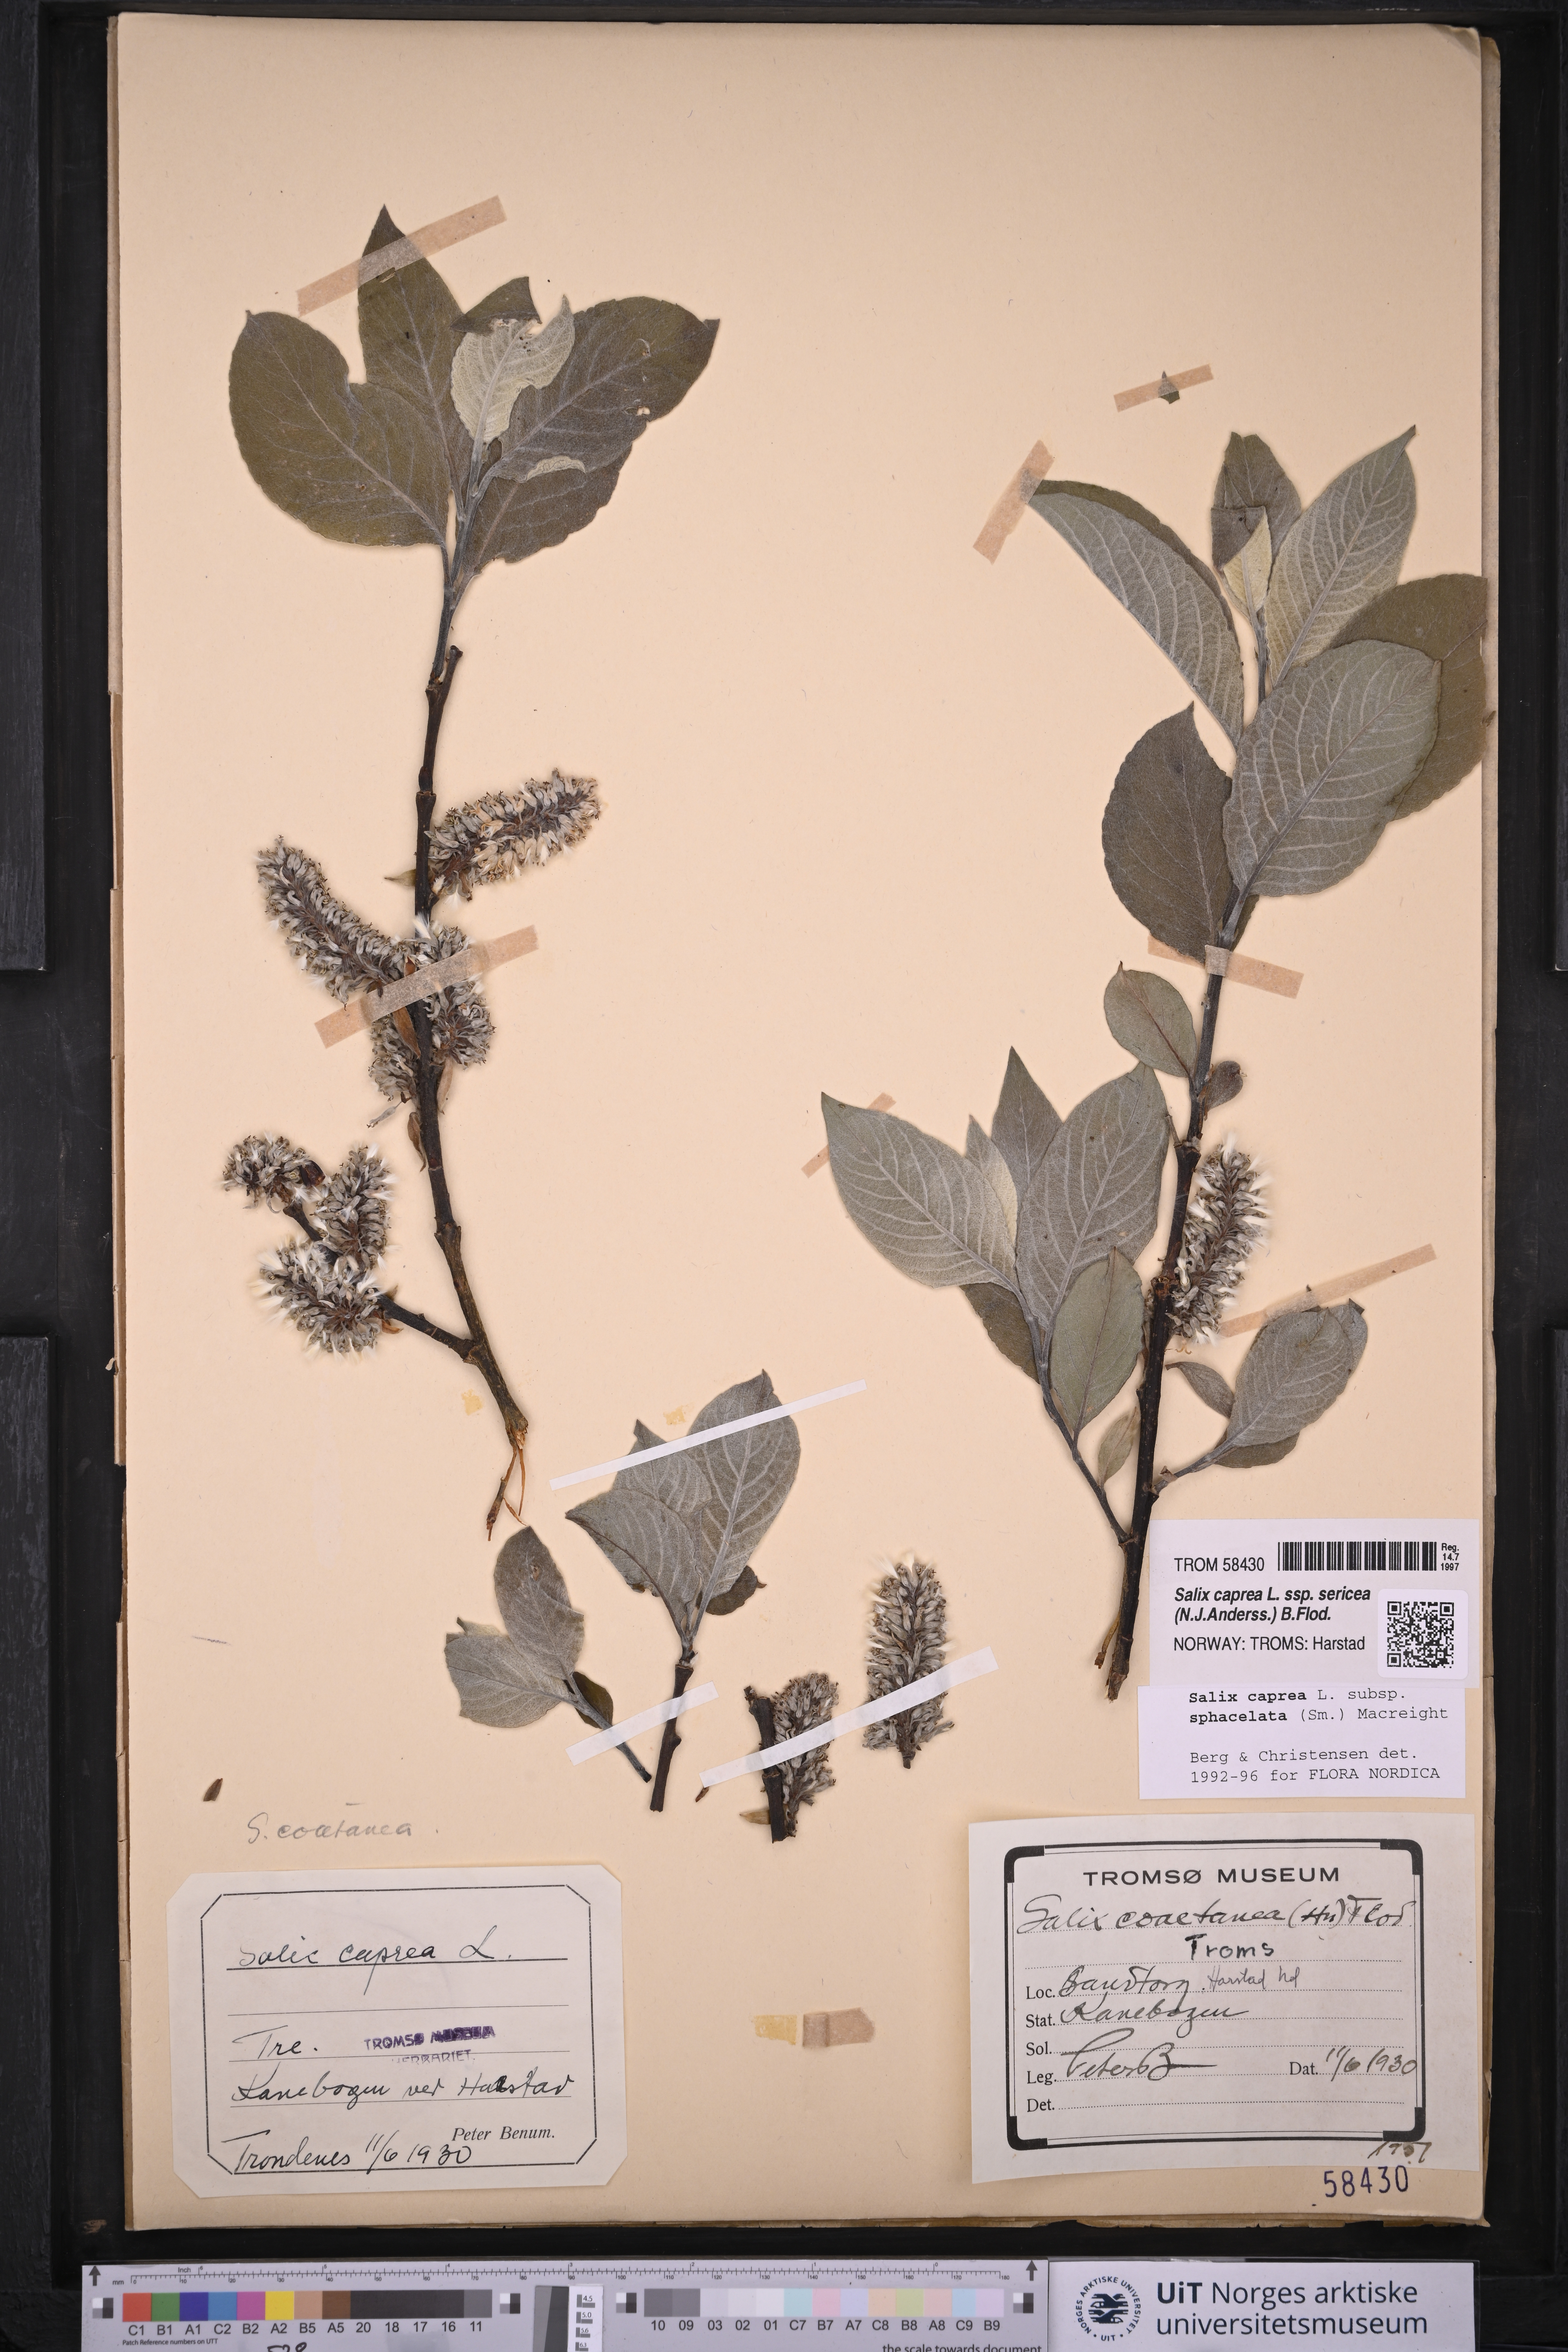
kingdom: Plantae
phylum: Tracheophyta
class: Magnoliopsida
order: Malpighiales
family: Salicaceae
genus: Salix
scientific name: Salix caprea
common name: Goat willow
